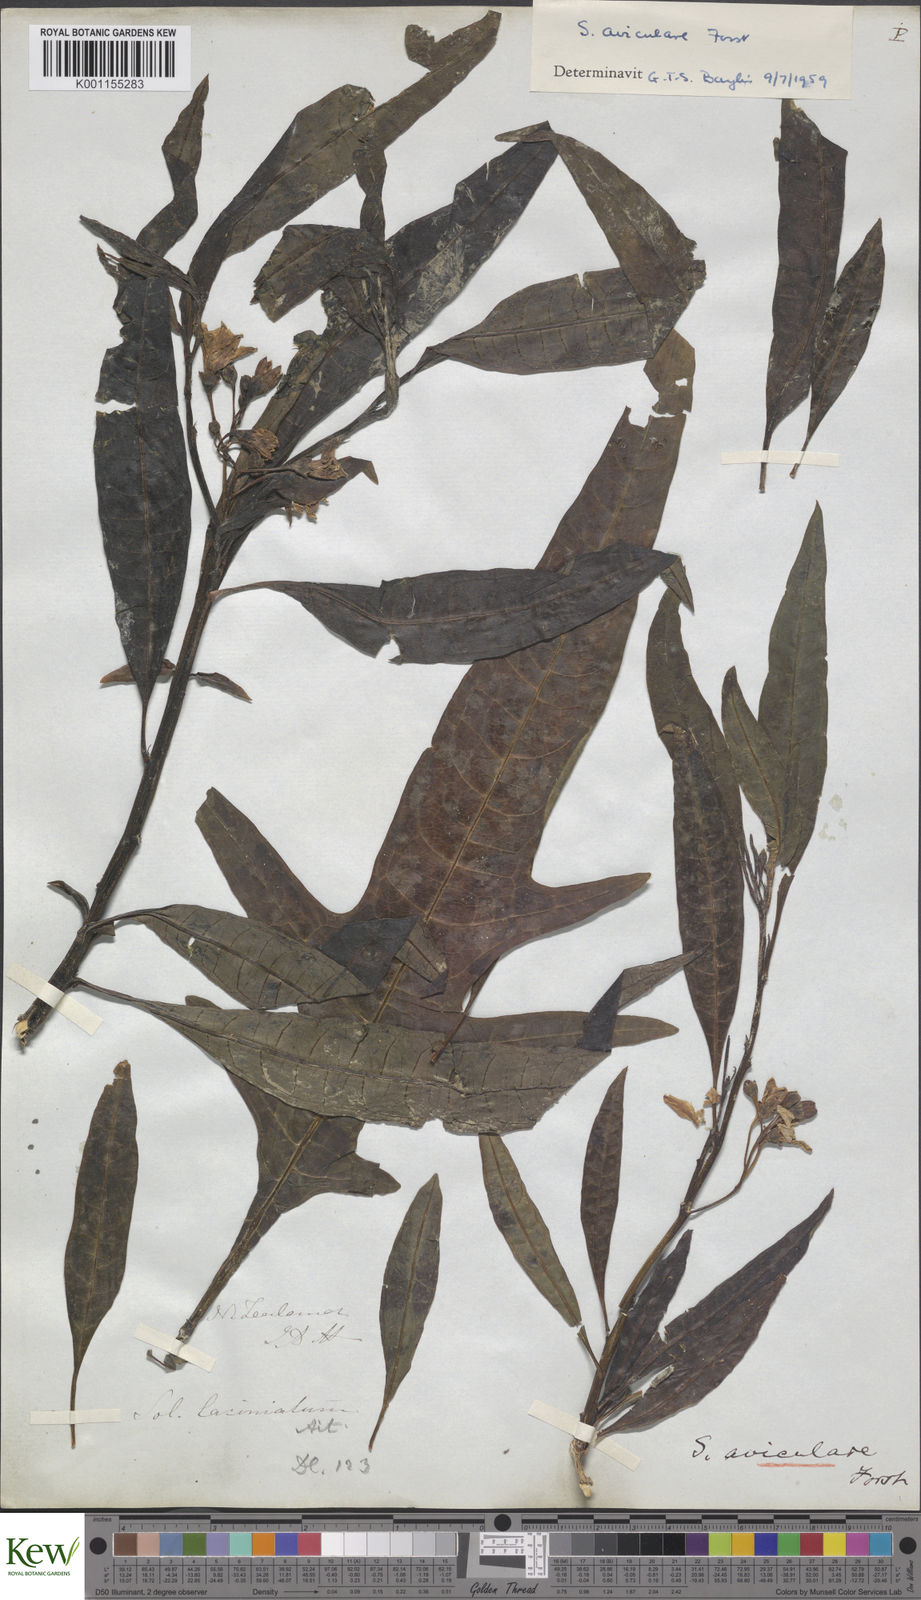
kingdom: Plantae
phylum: Tracheophyta
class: Magnoliopsida
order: Solanales
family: Solanaceae
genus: Solanum
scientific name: Solanum aviculare
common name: New zealand nightshade
